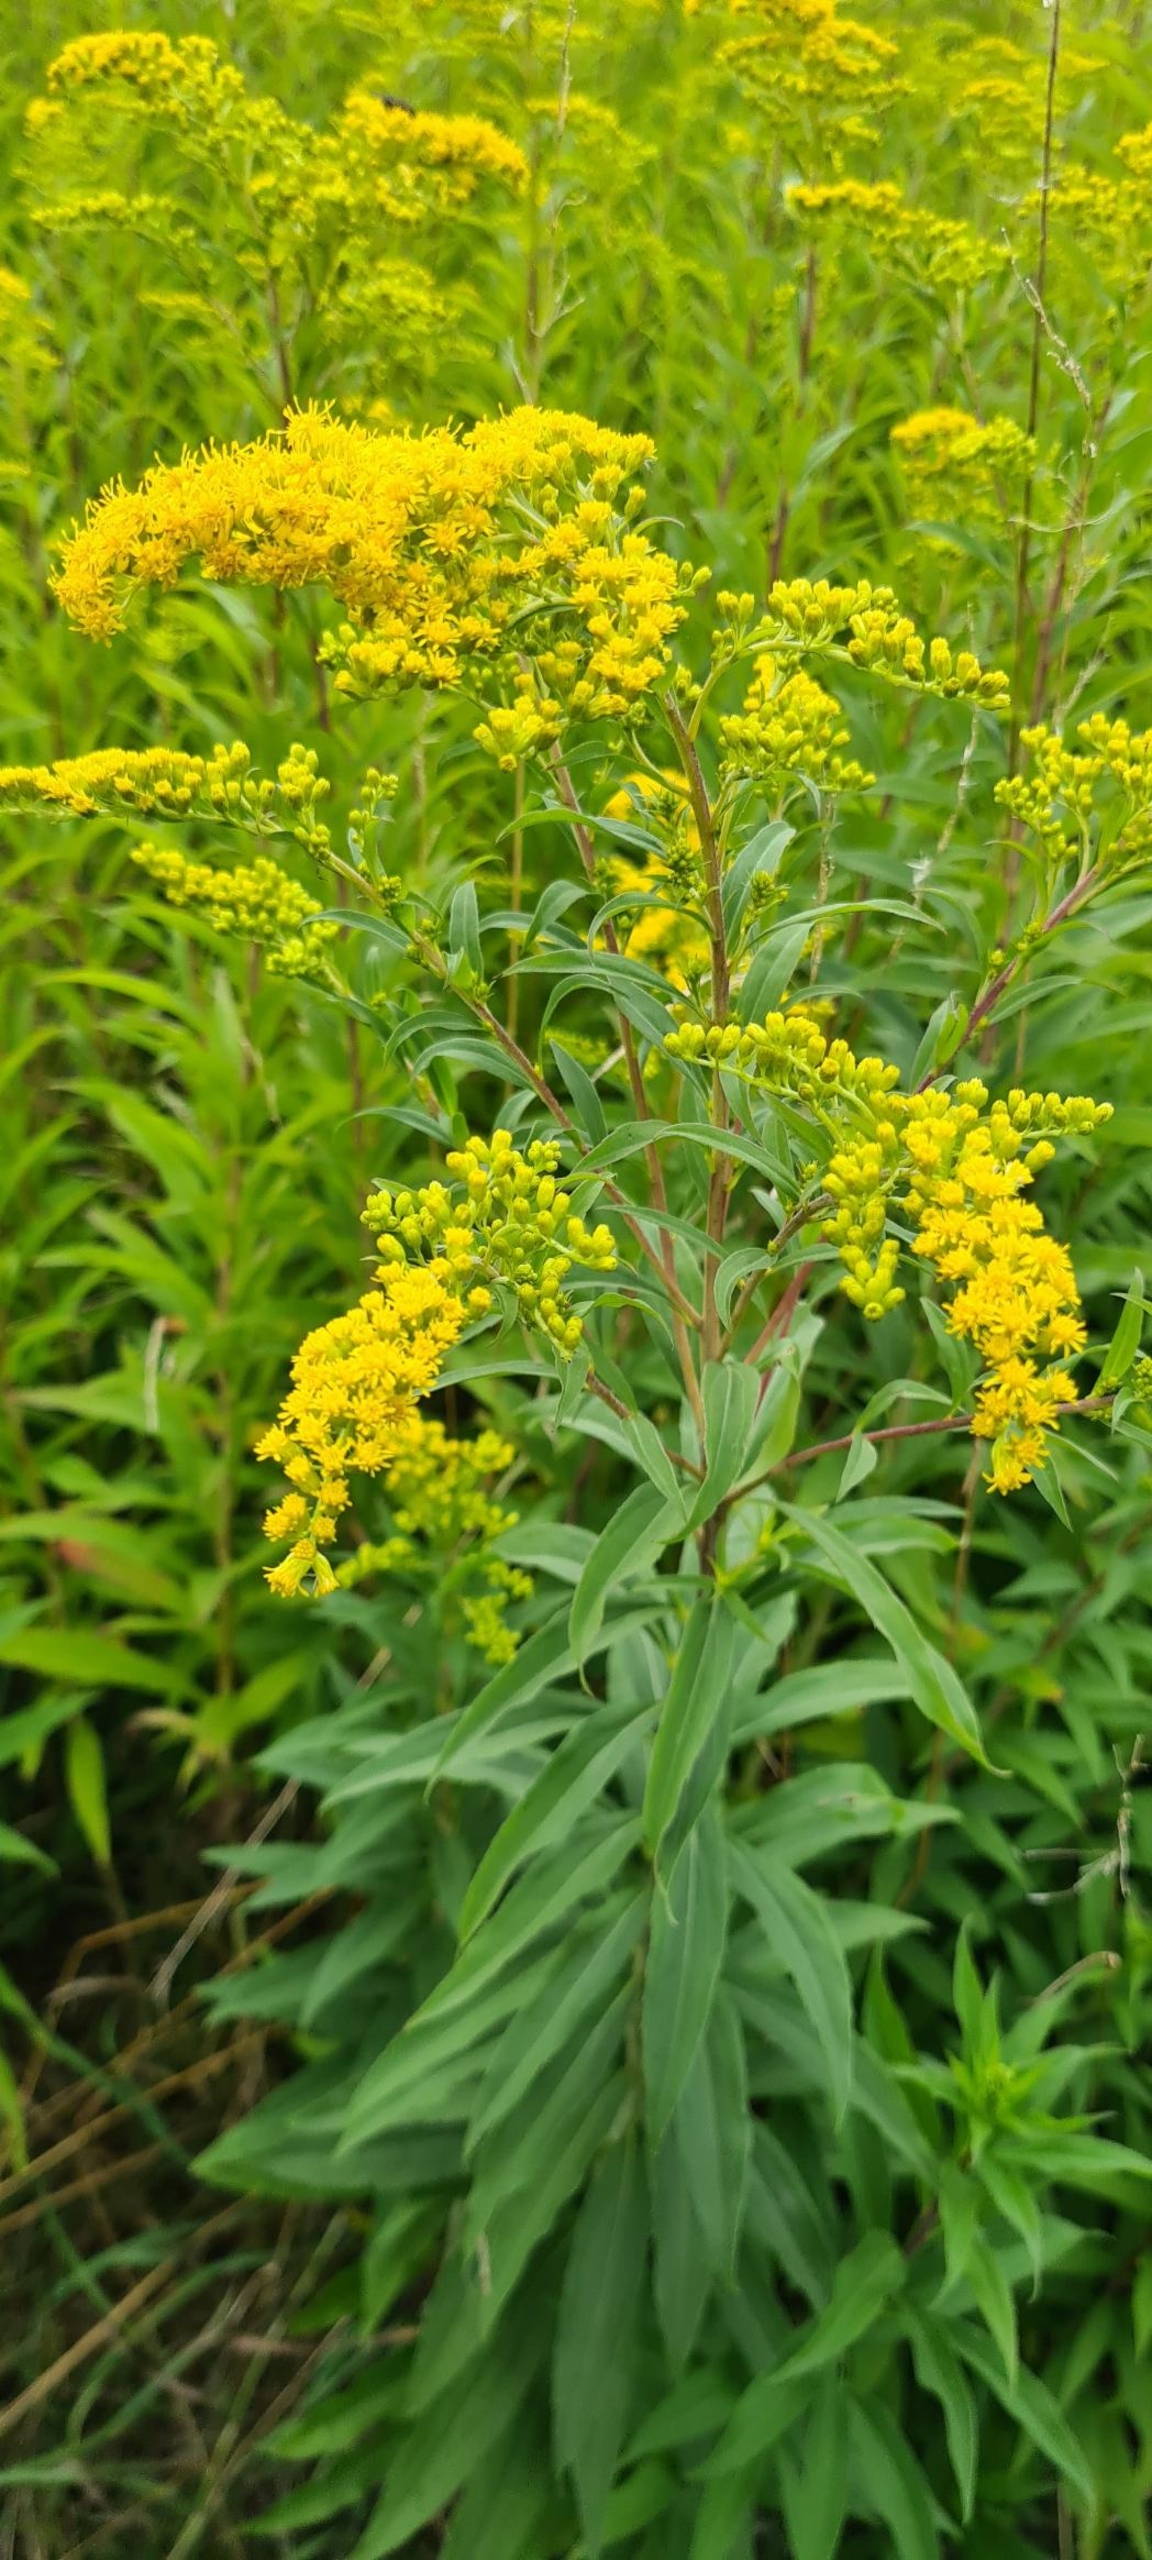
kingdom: Plantae
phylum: Tracheophyta
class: Magnoliopsida
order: Asterales
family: Asteraceae
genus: Solidago
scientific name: Solidago canadensis
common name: Kanadisk gyldenris
